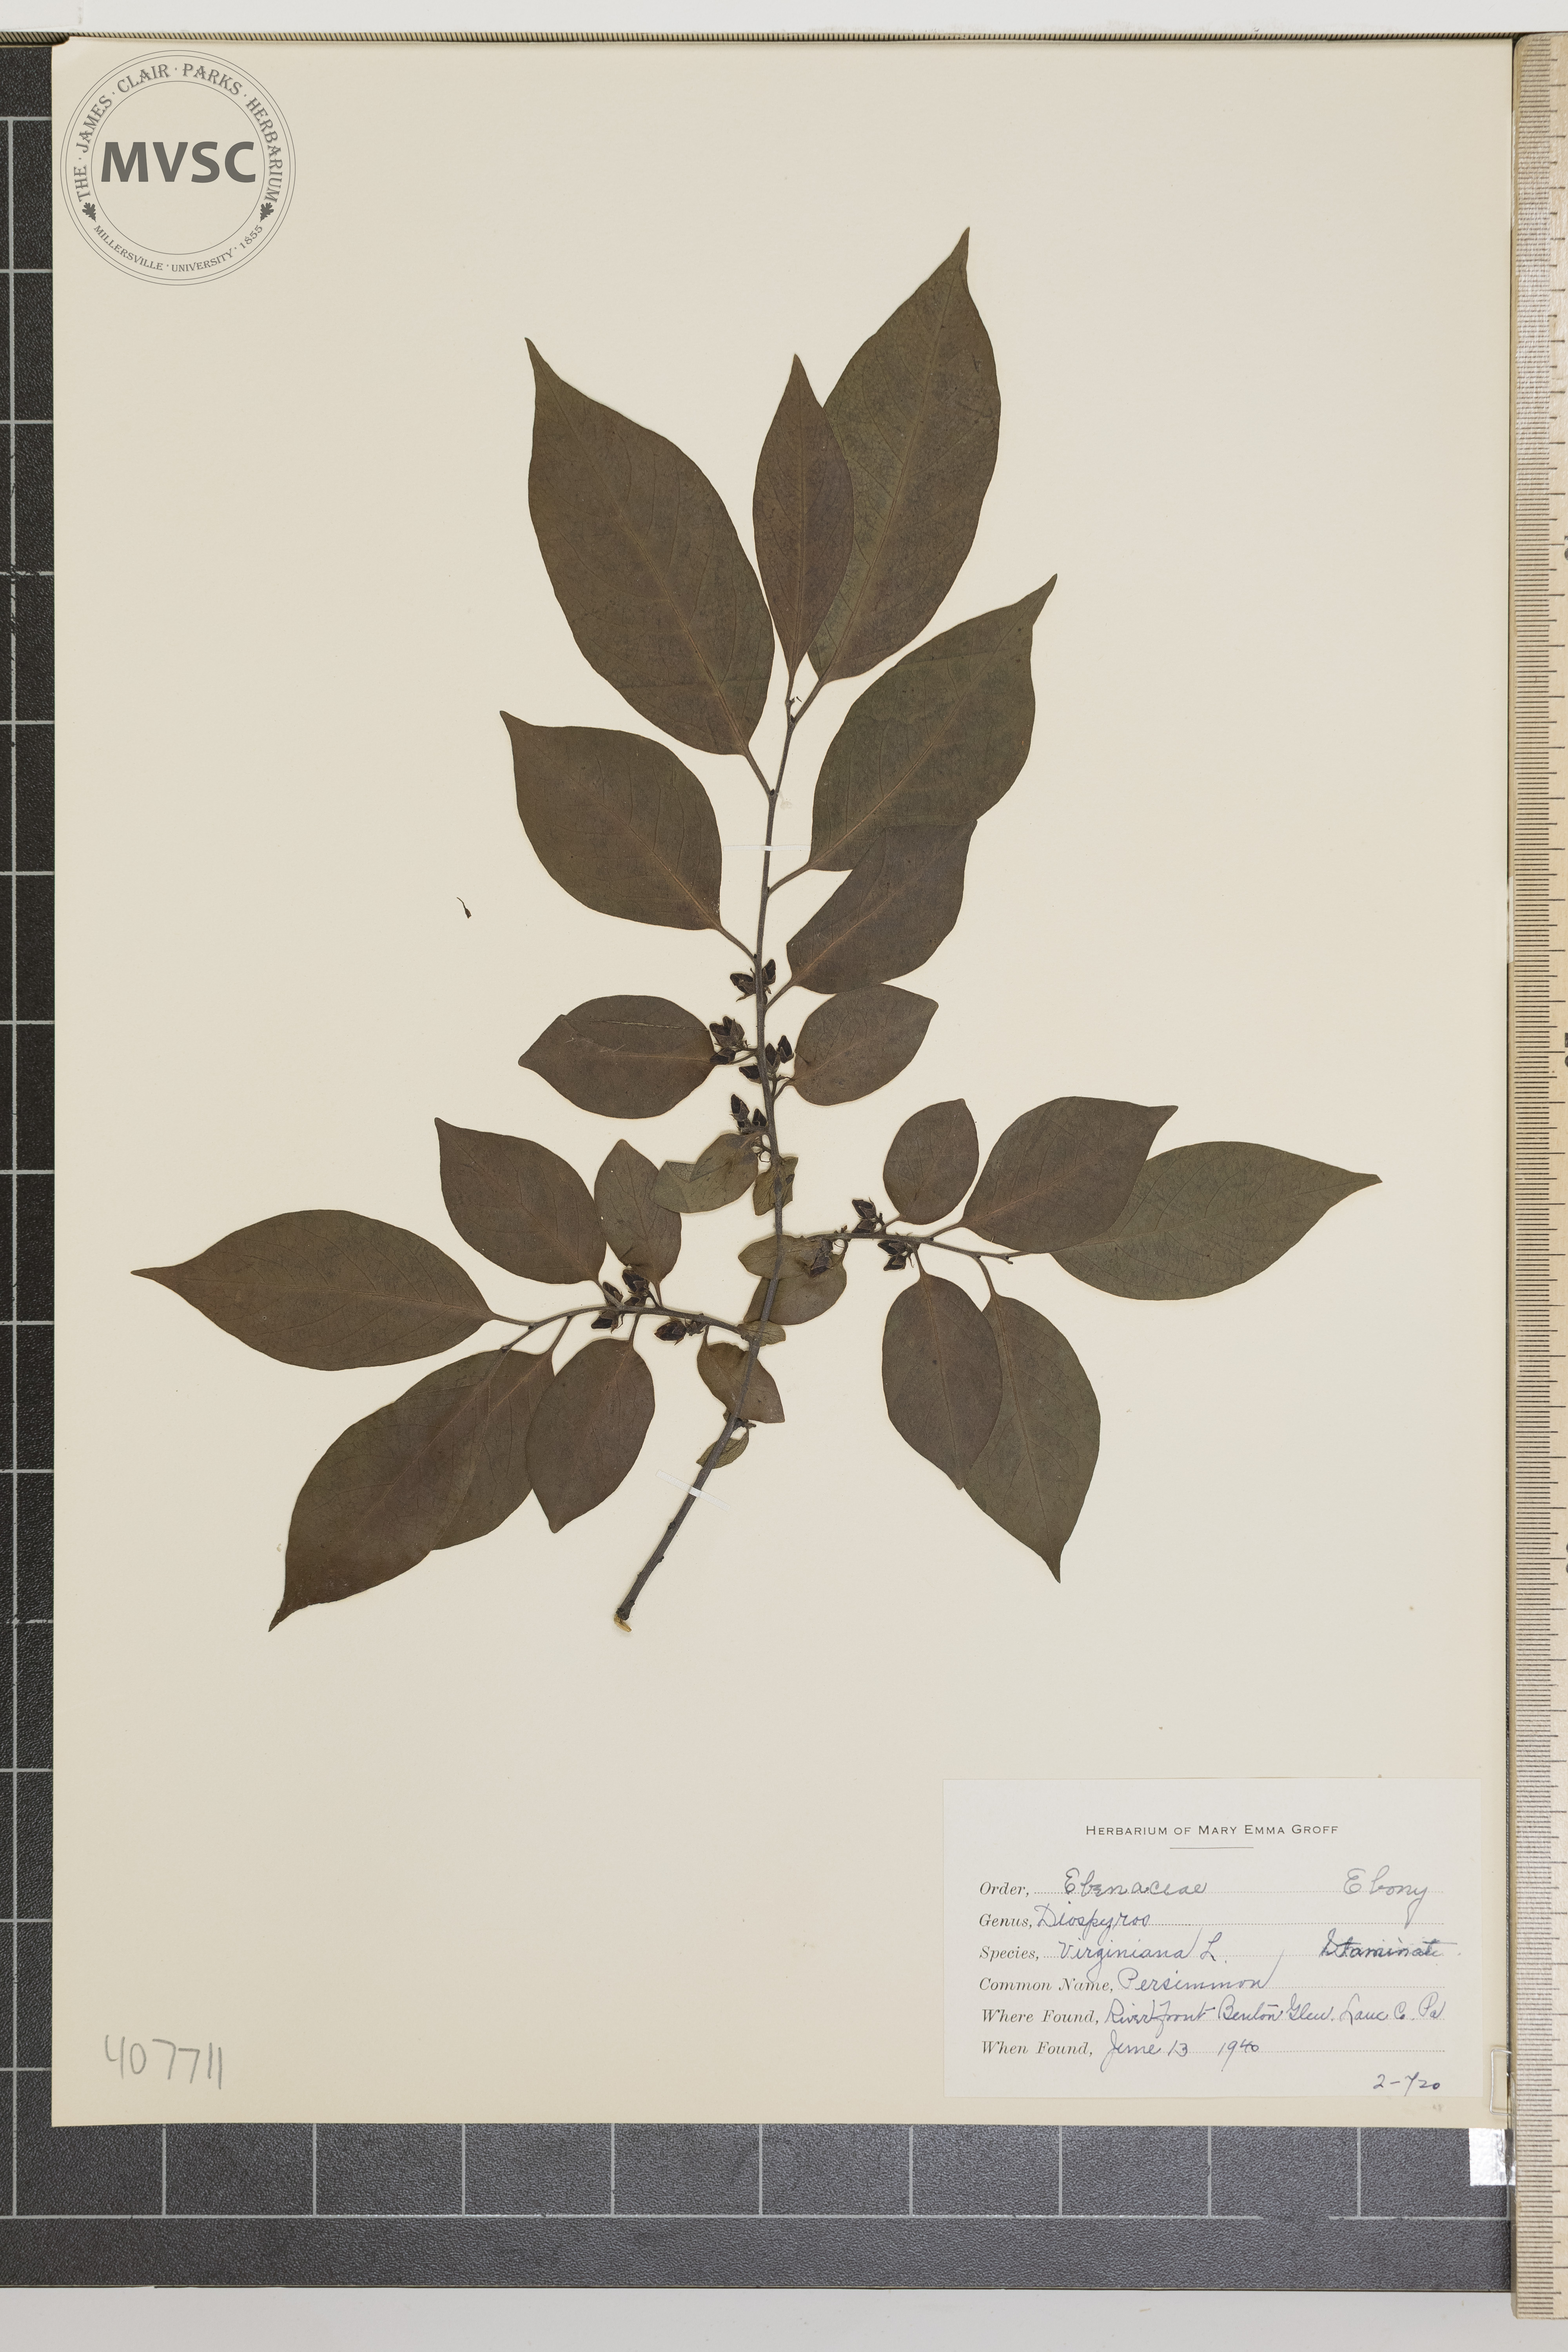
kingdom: Plantae
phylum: Tracheophyta
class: Magnoliopsida
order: Ericales
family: Ebenaceae
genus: Diospyros
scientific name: Diospyros virginiana
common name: Persimmon
